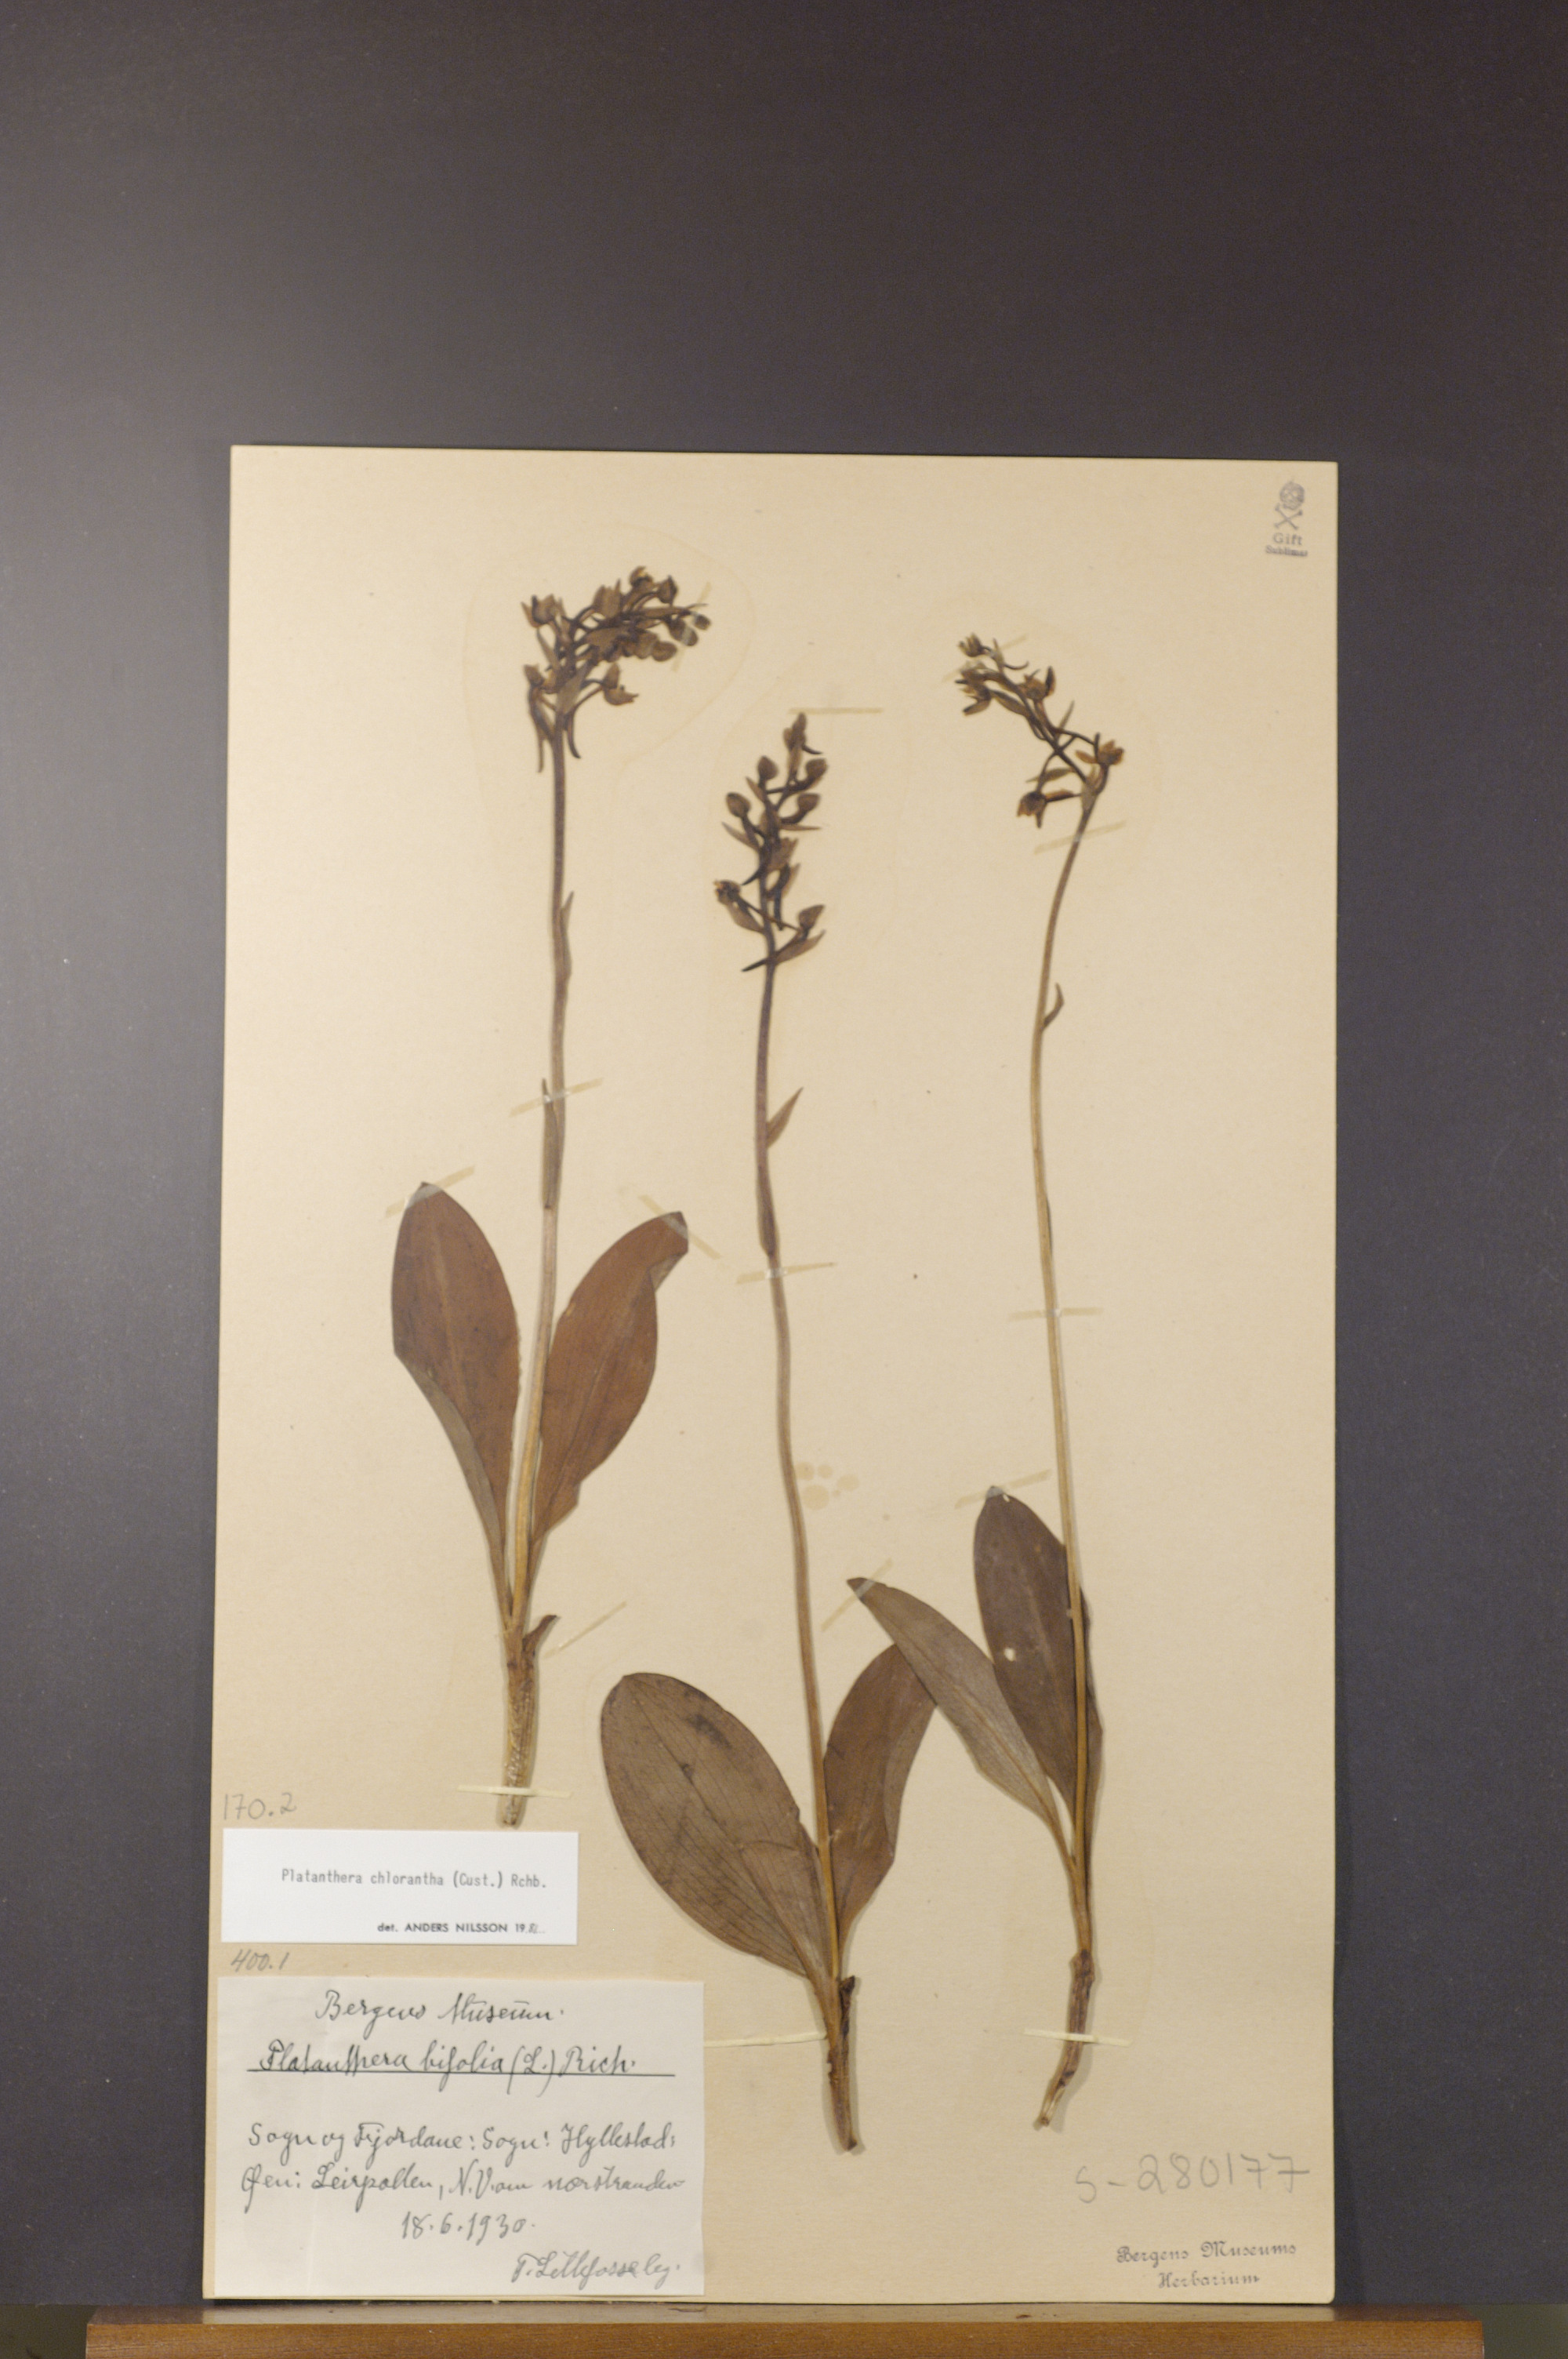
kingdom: Plantae
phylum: Tracheophyta
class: Liliopsida
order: Asparagales
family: Orchidaceae
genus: Platanthera
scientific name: Platanthera chlorantha
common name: Greater butterfly-orchid
